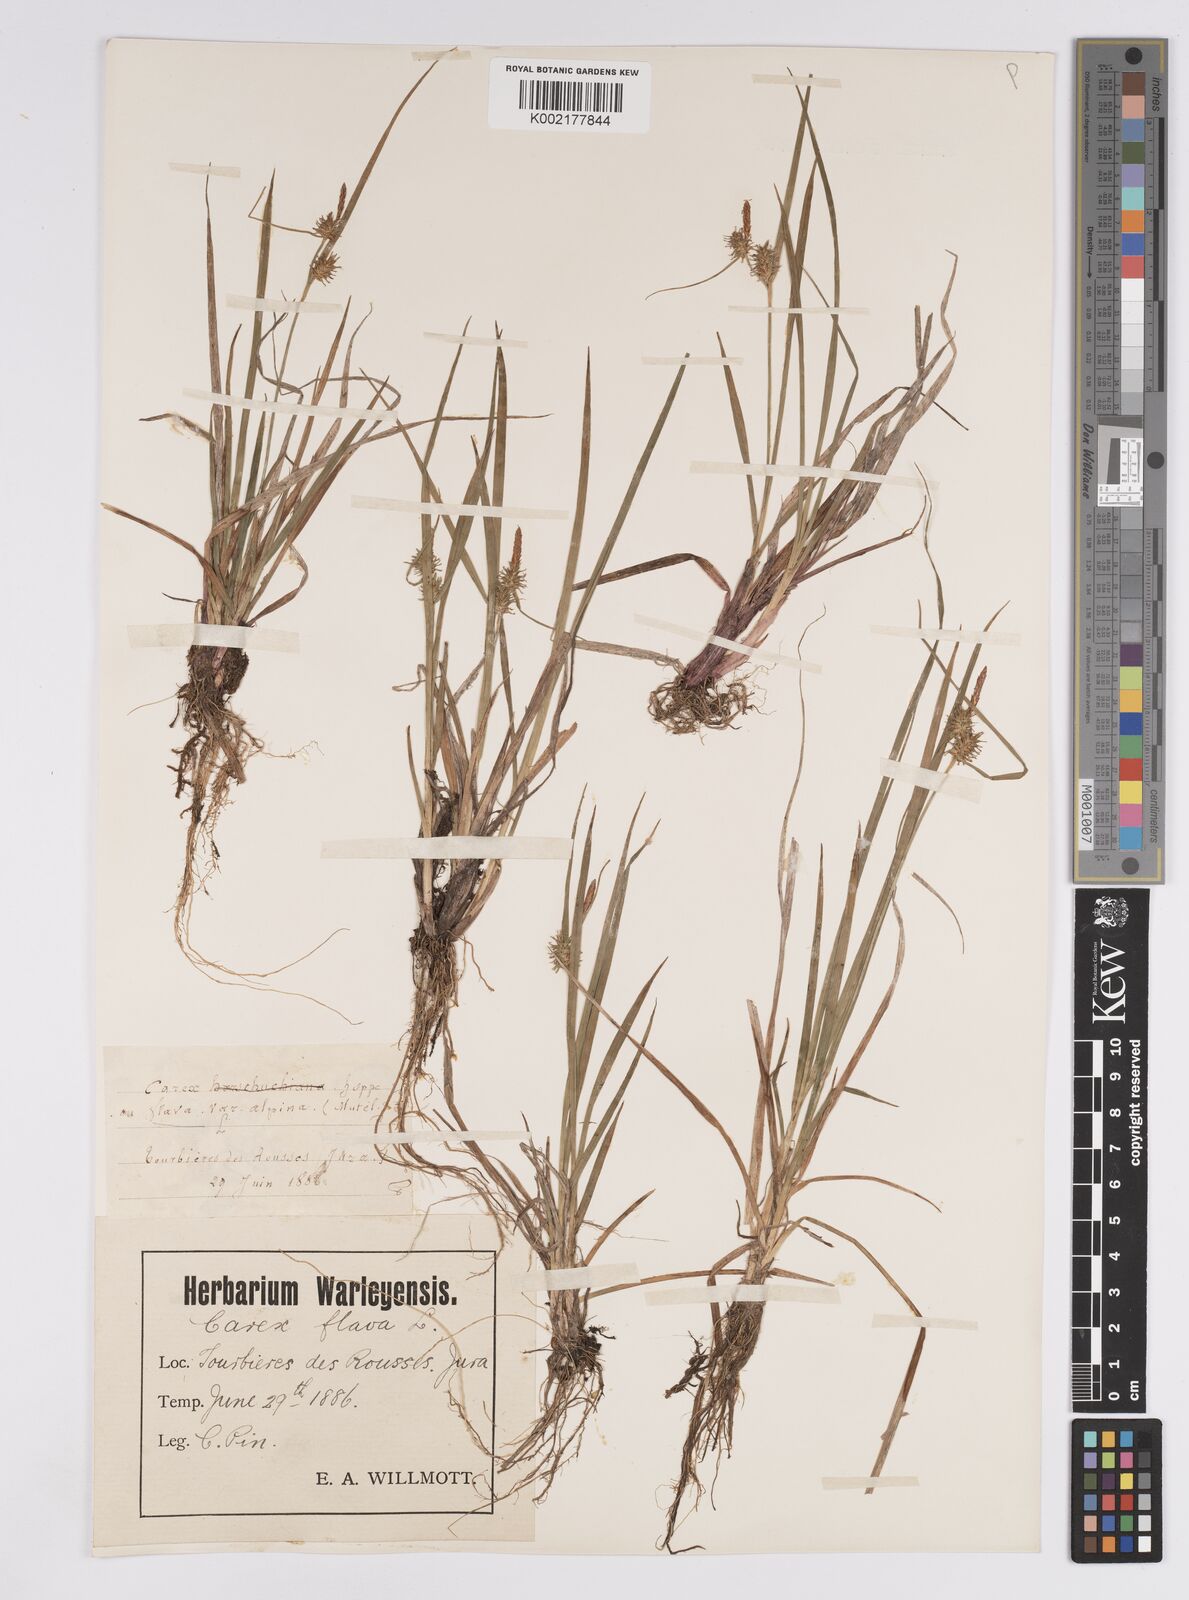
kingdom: Plantae
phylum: Tracheophyta
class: Liliopsida
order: Poales
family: Cyperaceae
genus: Carex
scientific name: Carex flava
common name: Large yellow-sedge
